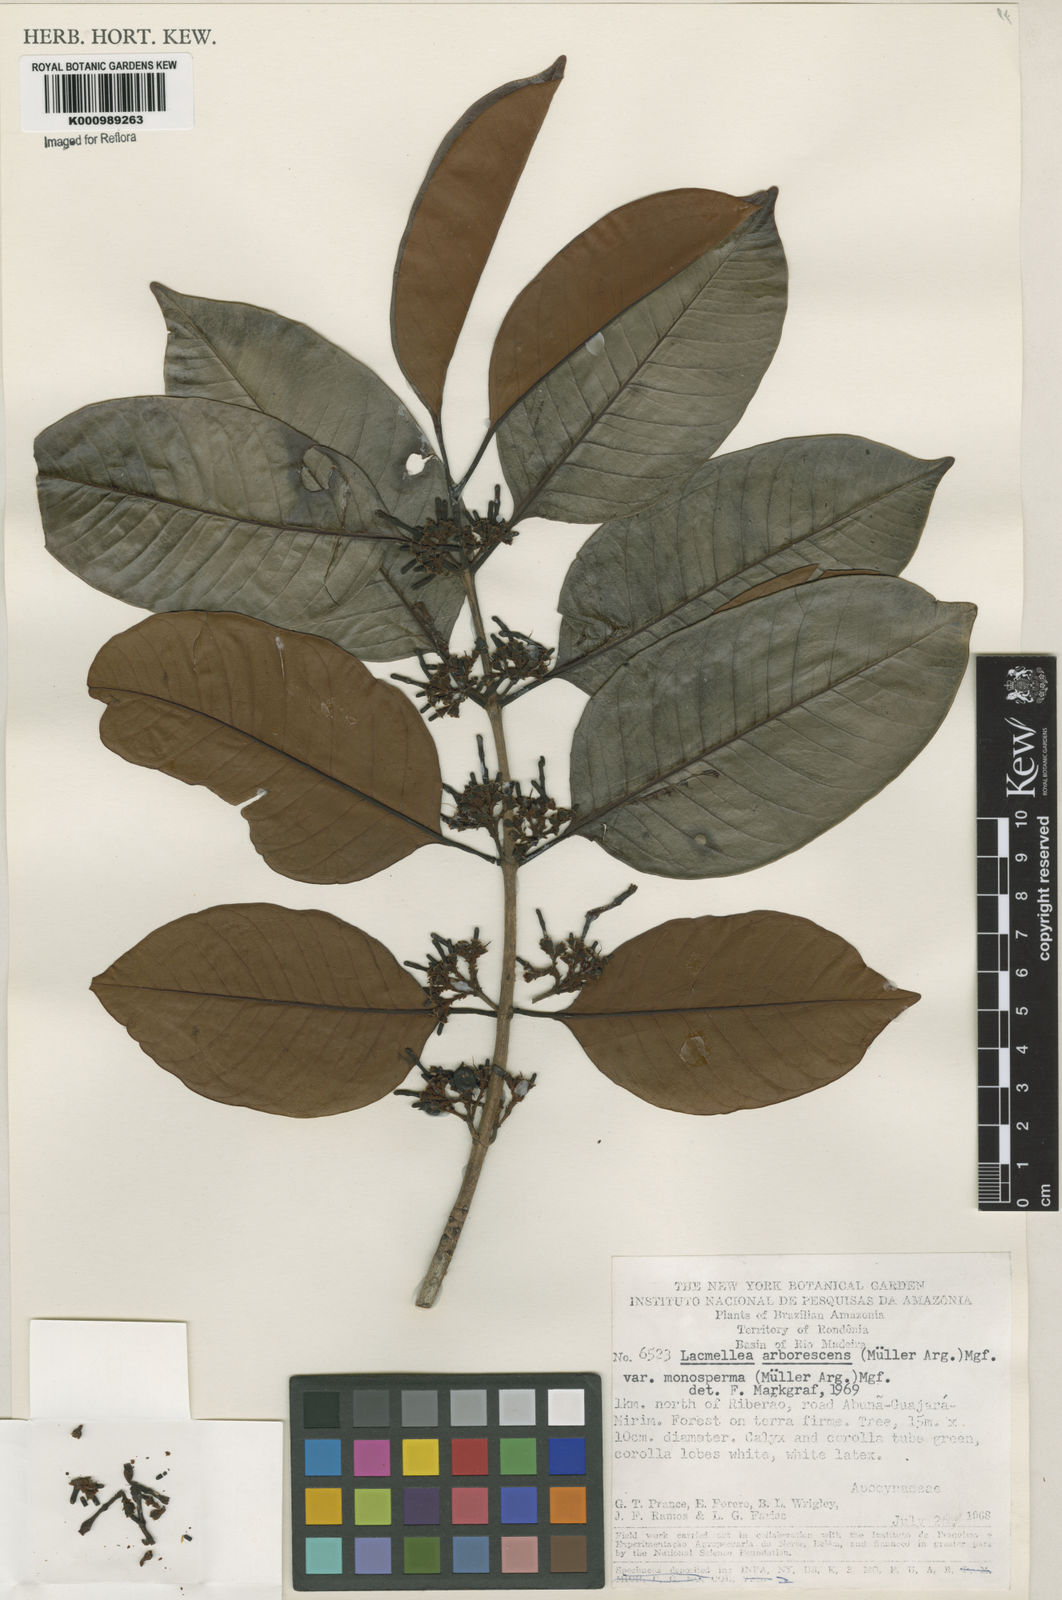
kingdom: Plantae
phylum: Tracheophyta
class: Magnoliopsida
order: Gentianales
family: Apocynaceae
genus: Lacmellea
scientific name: Lacmellea
